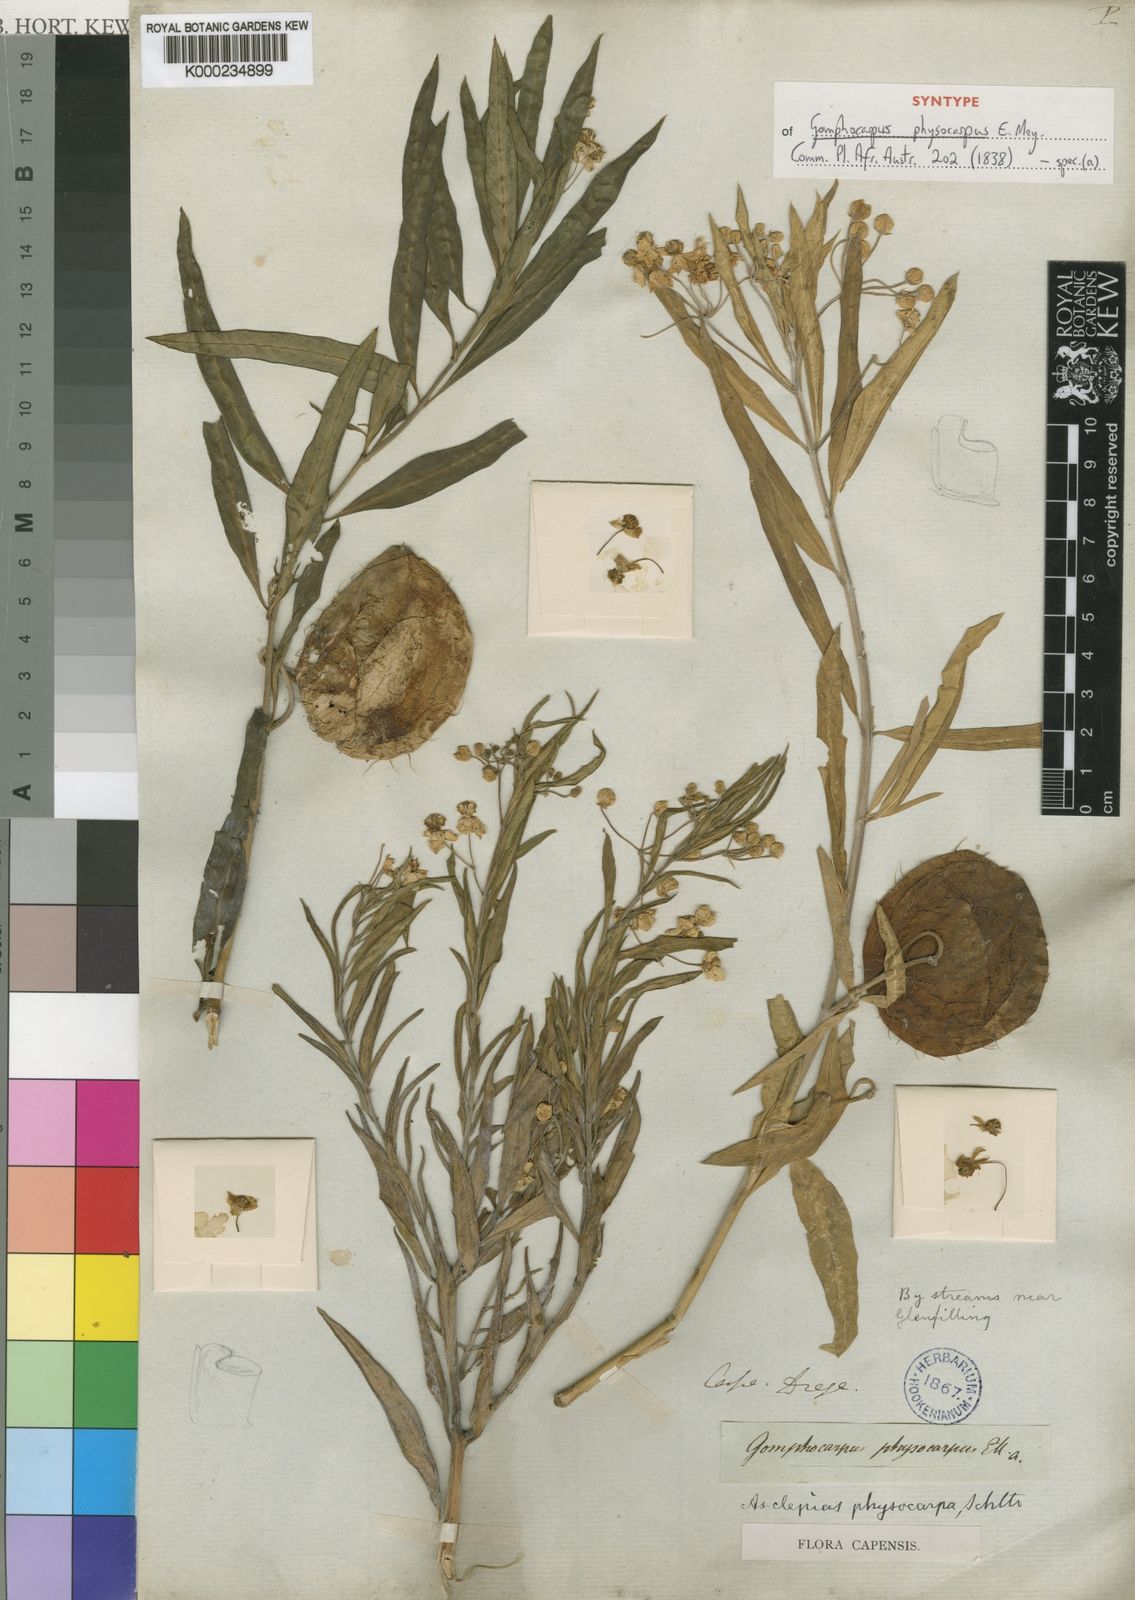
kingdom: Plantae
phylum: Tracheophyta
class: Magnoliopsida
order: Gentianales
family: Apocynaceae
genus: Gomphocarpus
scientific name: Gomphocarpus physocarpus
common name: Balloon cotton bush
